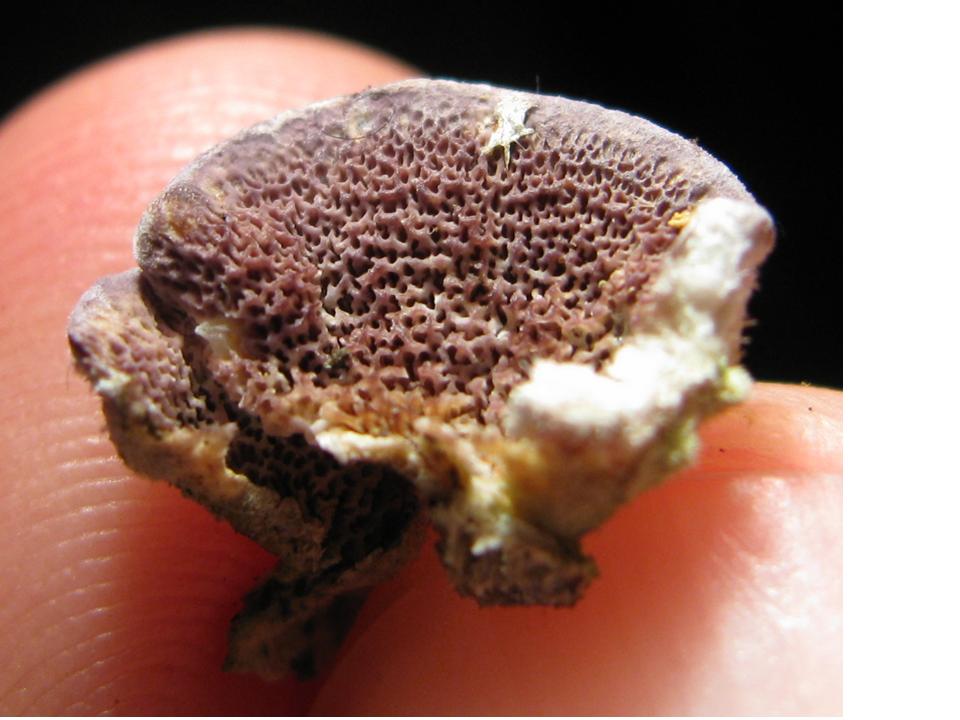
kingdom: Fungi
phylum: Basidiomycota
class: Agaricomycetes
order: Hymenochaetales
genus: Trichaptum
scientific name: Trichaptum abietinum
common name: almindelig violporesvamp
